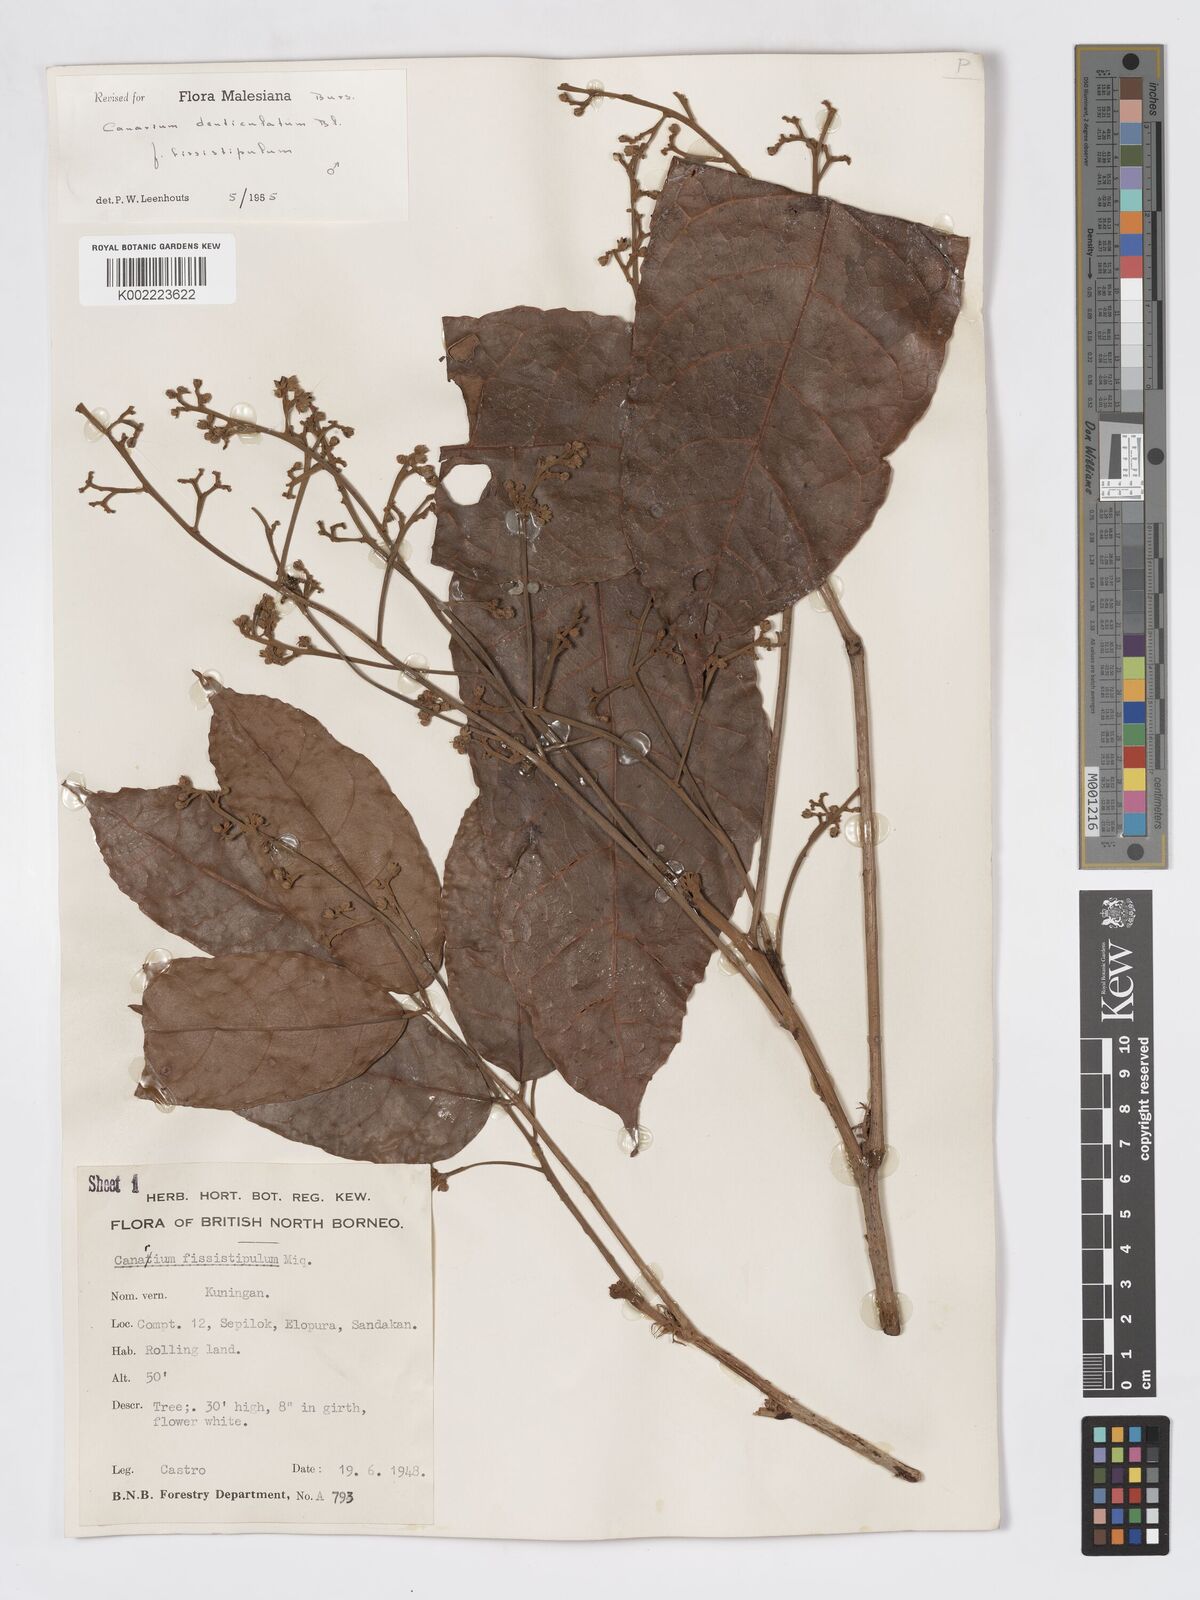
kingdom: Plantae
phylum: Tracheophyta
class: Magnoliopsida
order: Sapindales
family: Burseraceae
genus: Canarium
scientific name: Canarium denticulatum
